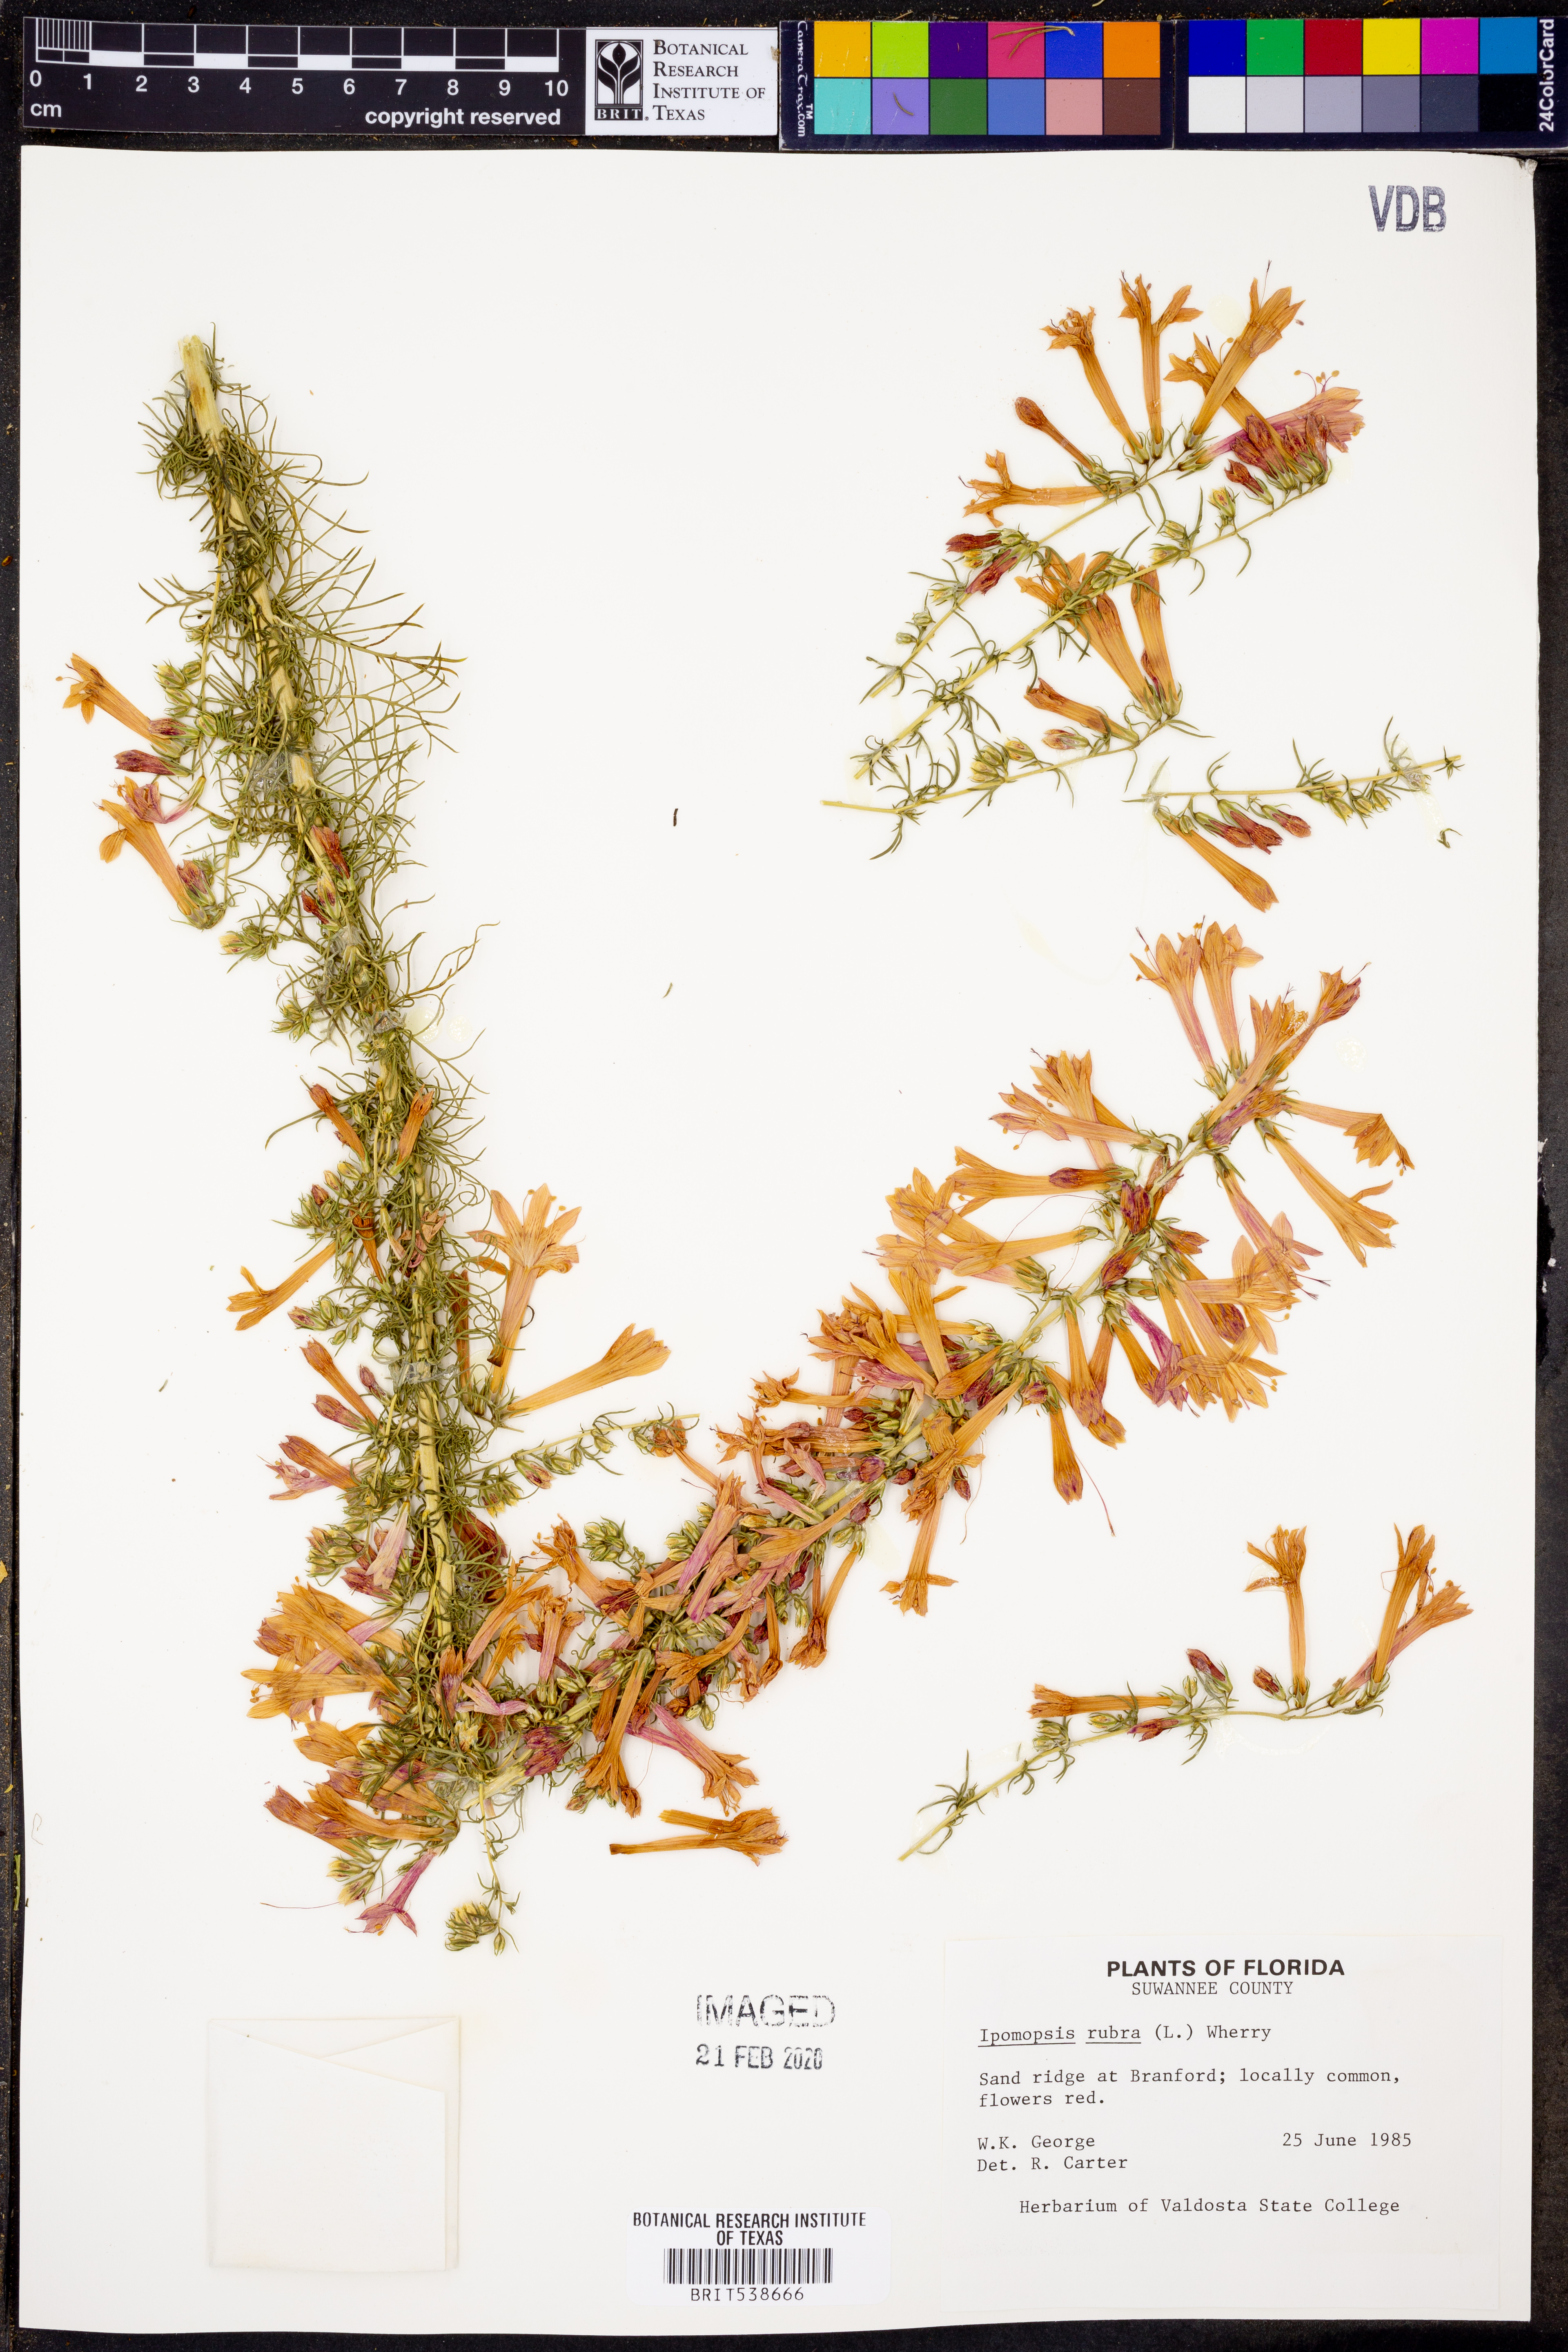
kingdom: Plantae
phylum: Tracheophyta
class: Magnoliopsida
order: Ericales
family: Polemoniaceae
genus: Ipomopsis
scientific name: Ipomopsis rubra
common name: Skyrocket
